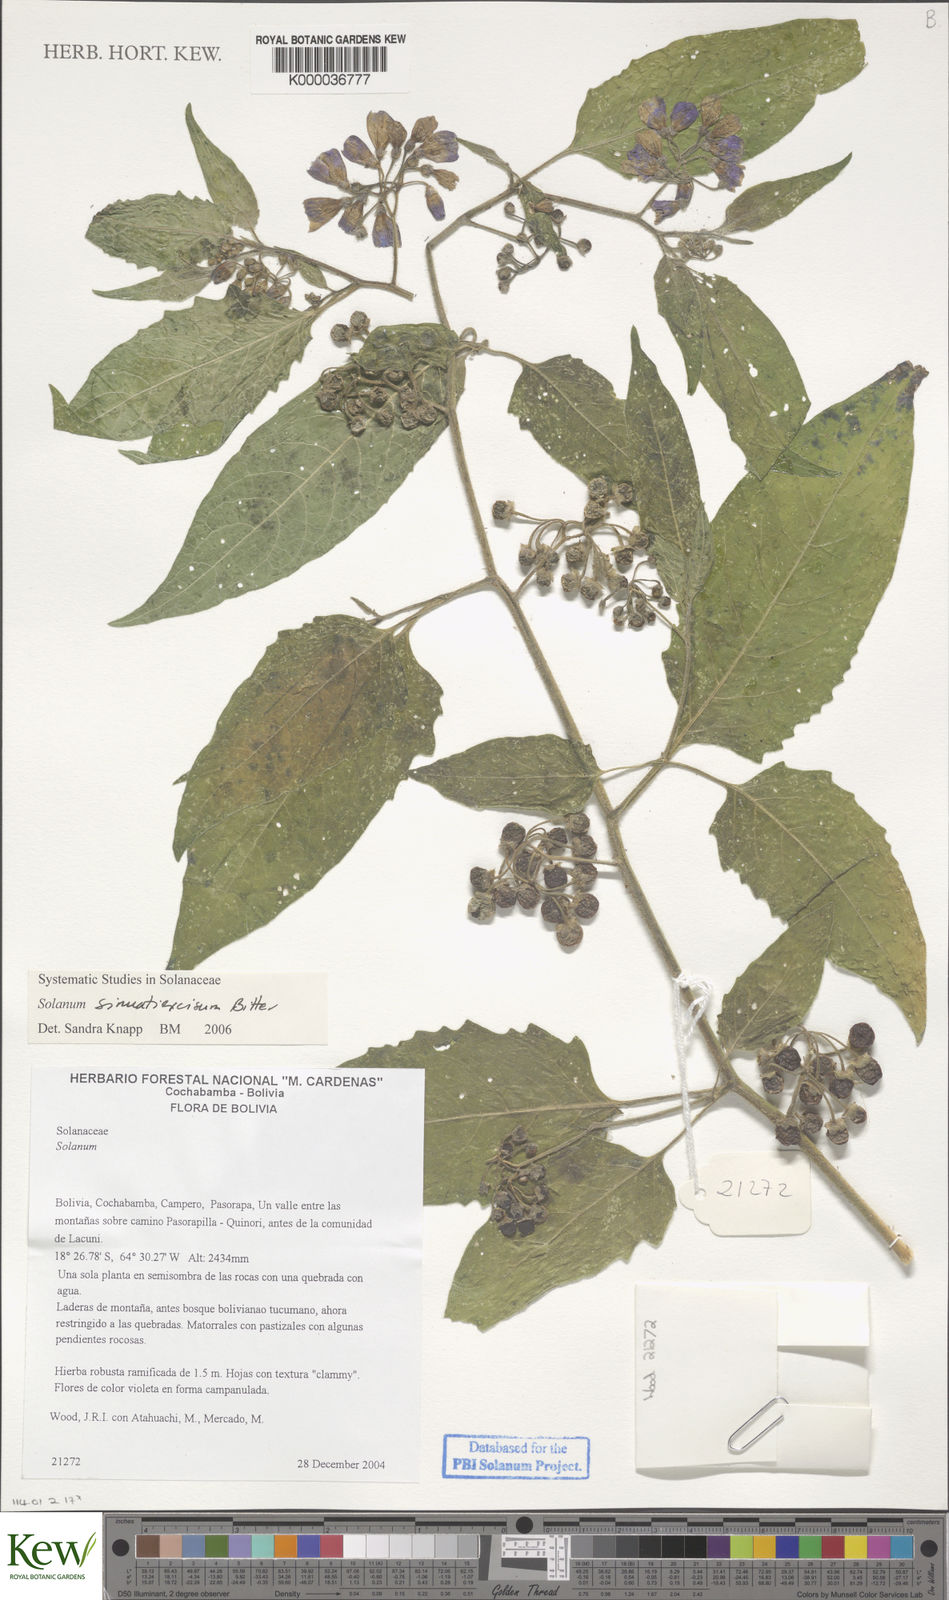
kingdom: Plantae
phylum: Tracheophyta
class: Magnoliopsida
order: Solanales
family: Solanaceae
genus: Solanum
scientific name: Solanum sinuatiexcisum
